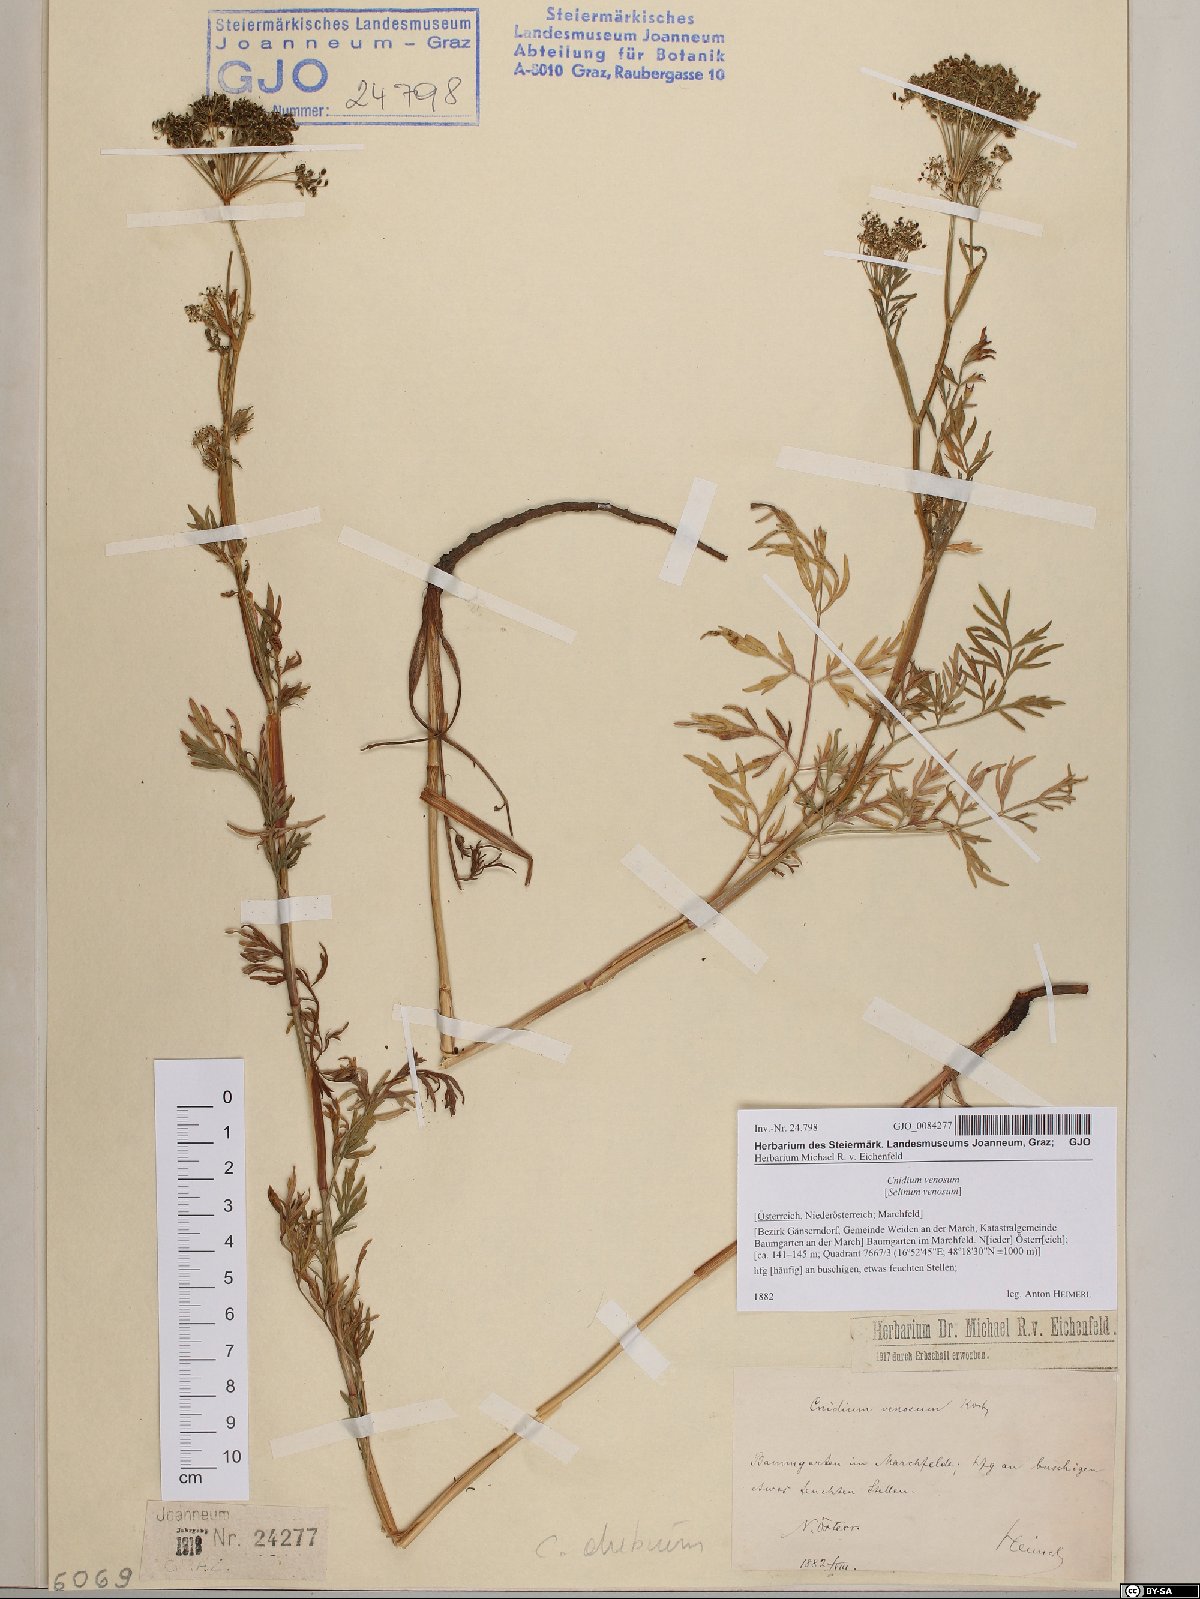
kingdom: Plantae
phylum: Tracheophyta
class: Magnoliopsida
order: Apiales
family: Apiaceae
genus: Kadenia
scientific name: Kadenia dubia
